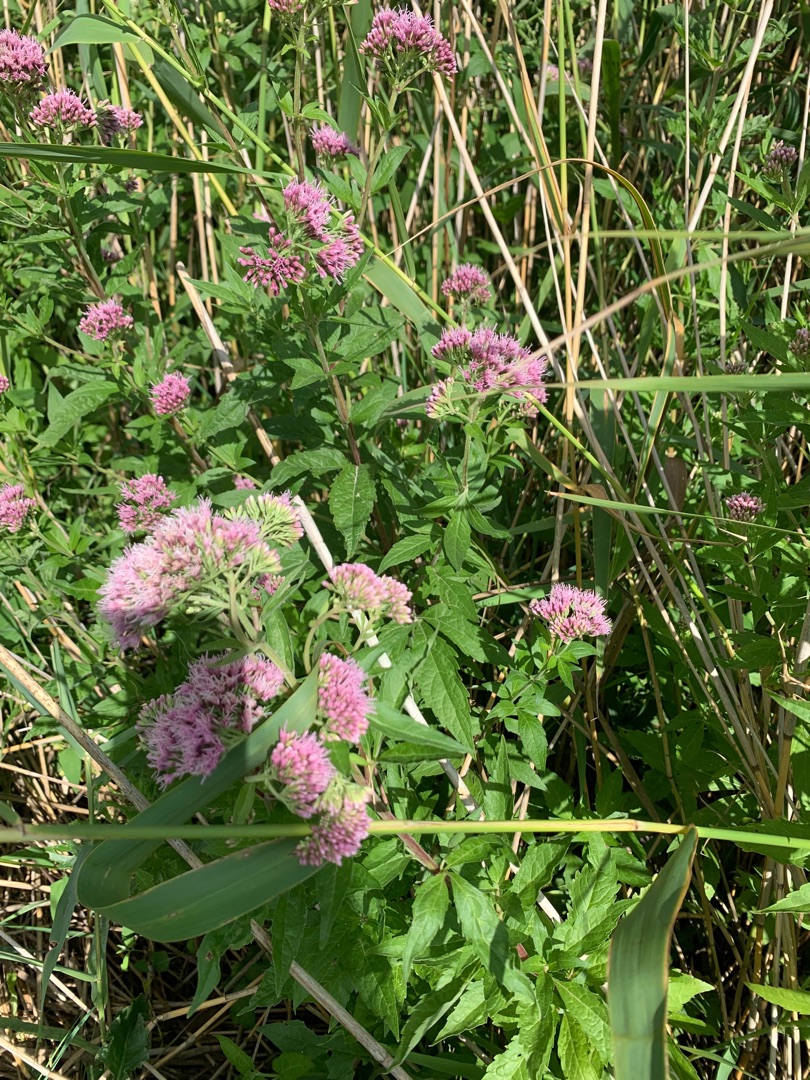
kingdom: Plantae
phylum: Tracheophyta
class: Magnoliopsida
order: Asterales
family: Asteraceae
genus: Eupatorium
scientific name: Eupatorium cannabinum
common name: Hjortetrøst
